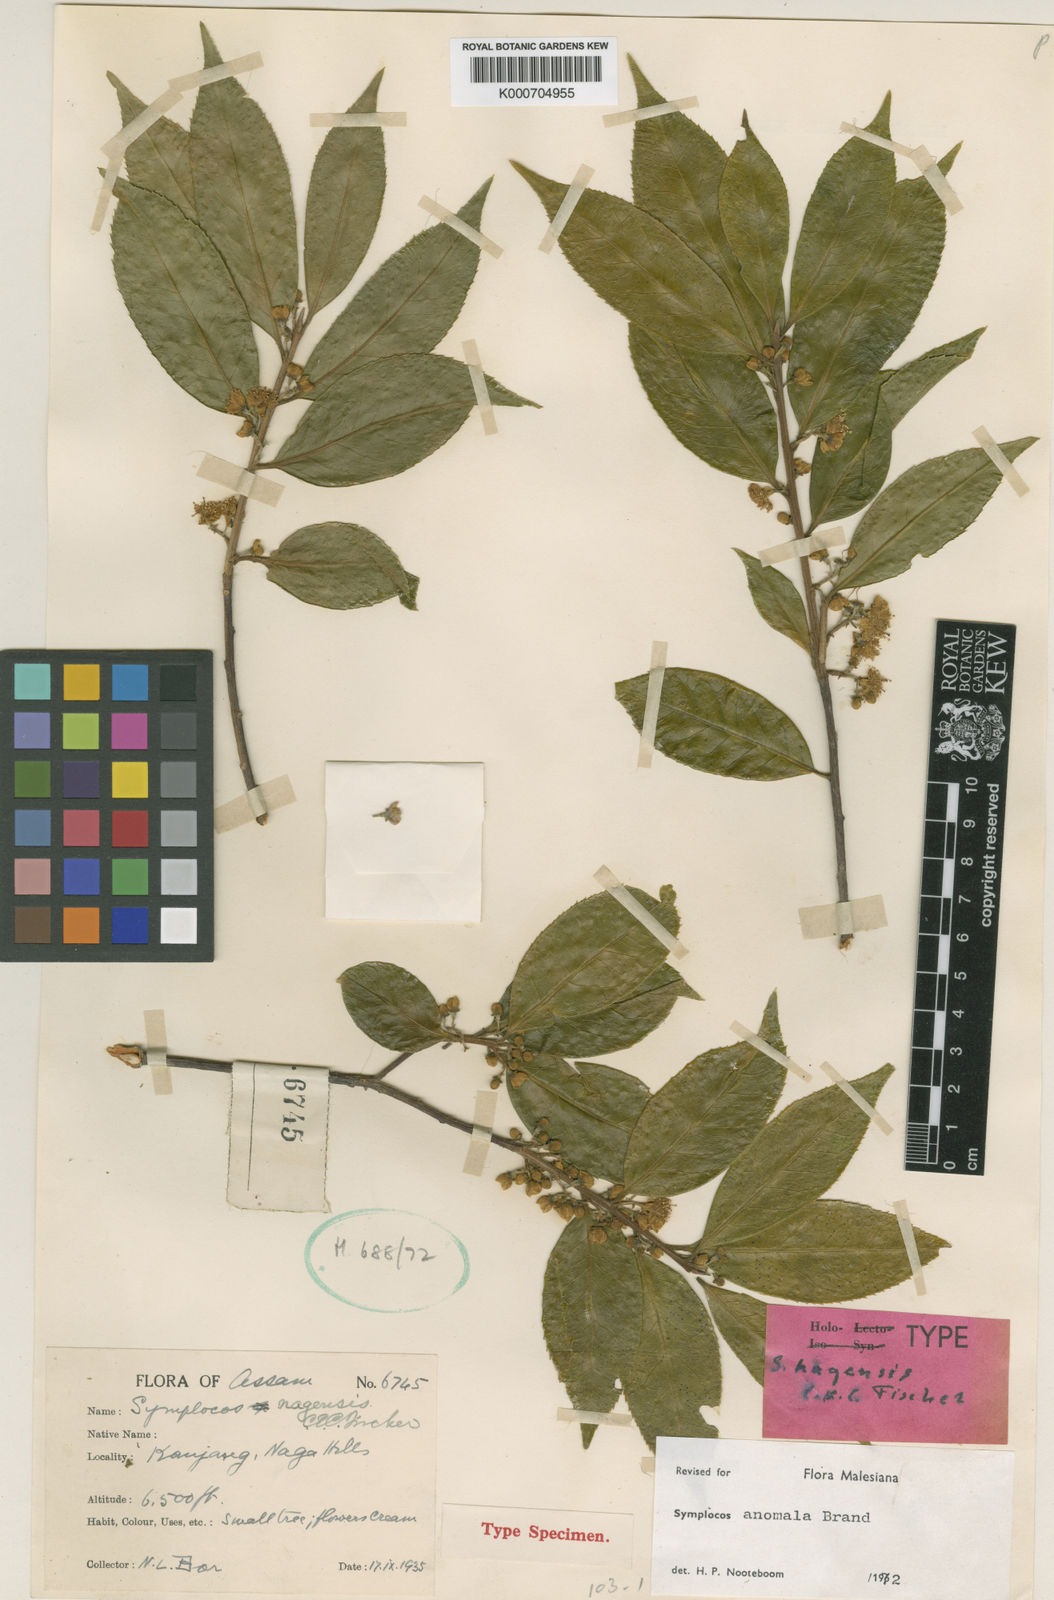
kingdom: Plantae
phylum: Tracheophyta
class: Magnoliopsida
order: Ericales
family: Symplocaceae
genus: Symplocos
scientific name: Symplocos anomala
